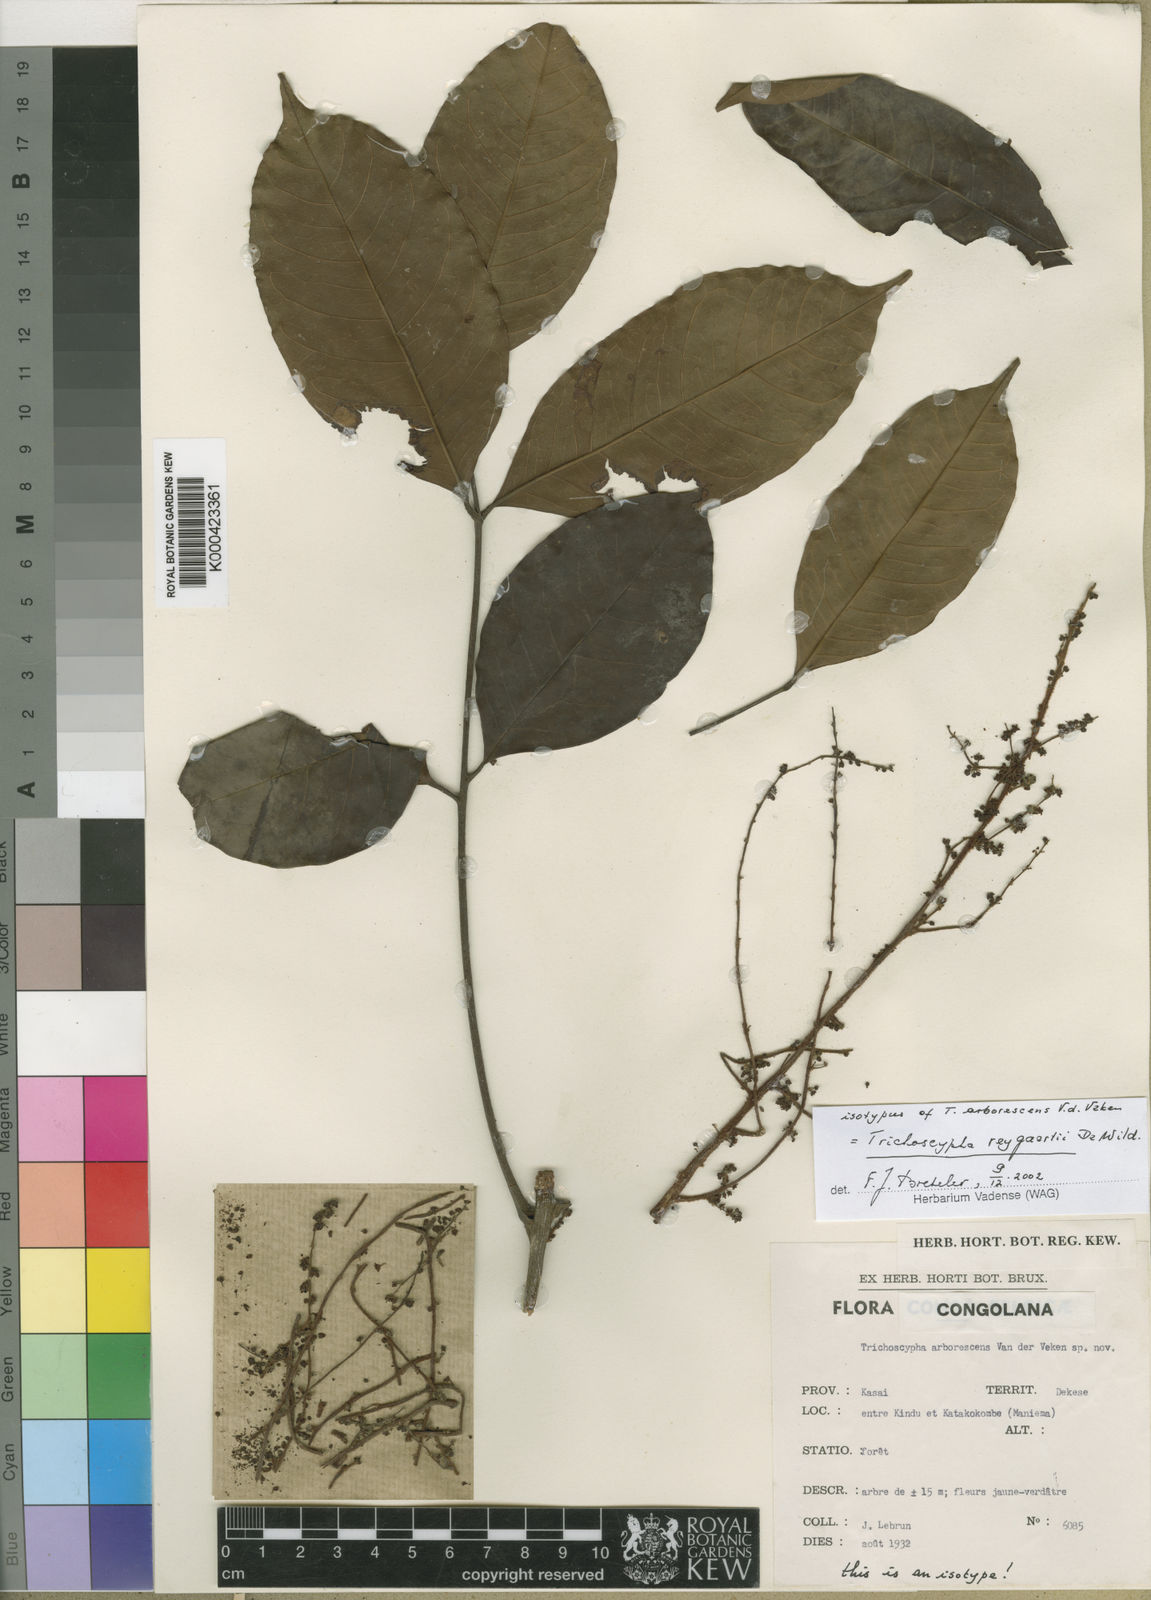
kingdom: Plantae
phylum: Tracheophyta
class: Magnoliopsida
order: Sapindales
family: Anacardiaceae
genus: Trichoscypha
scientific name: Trichoscypha reygaertii
